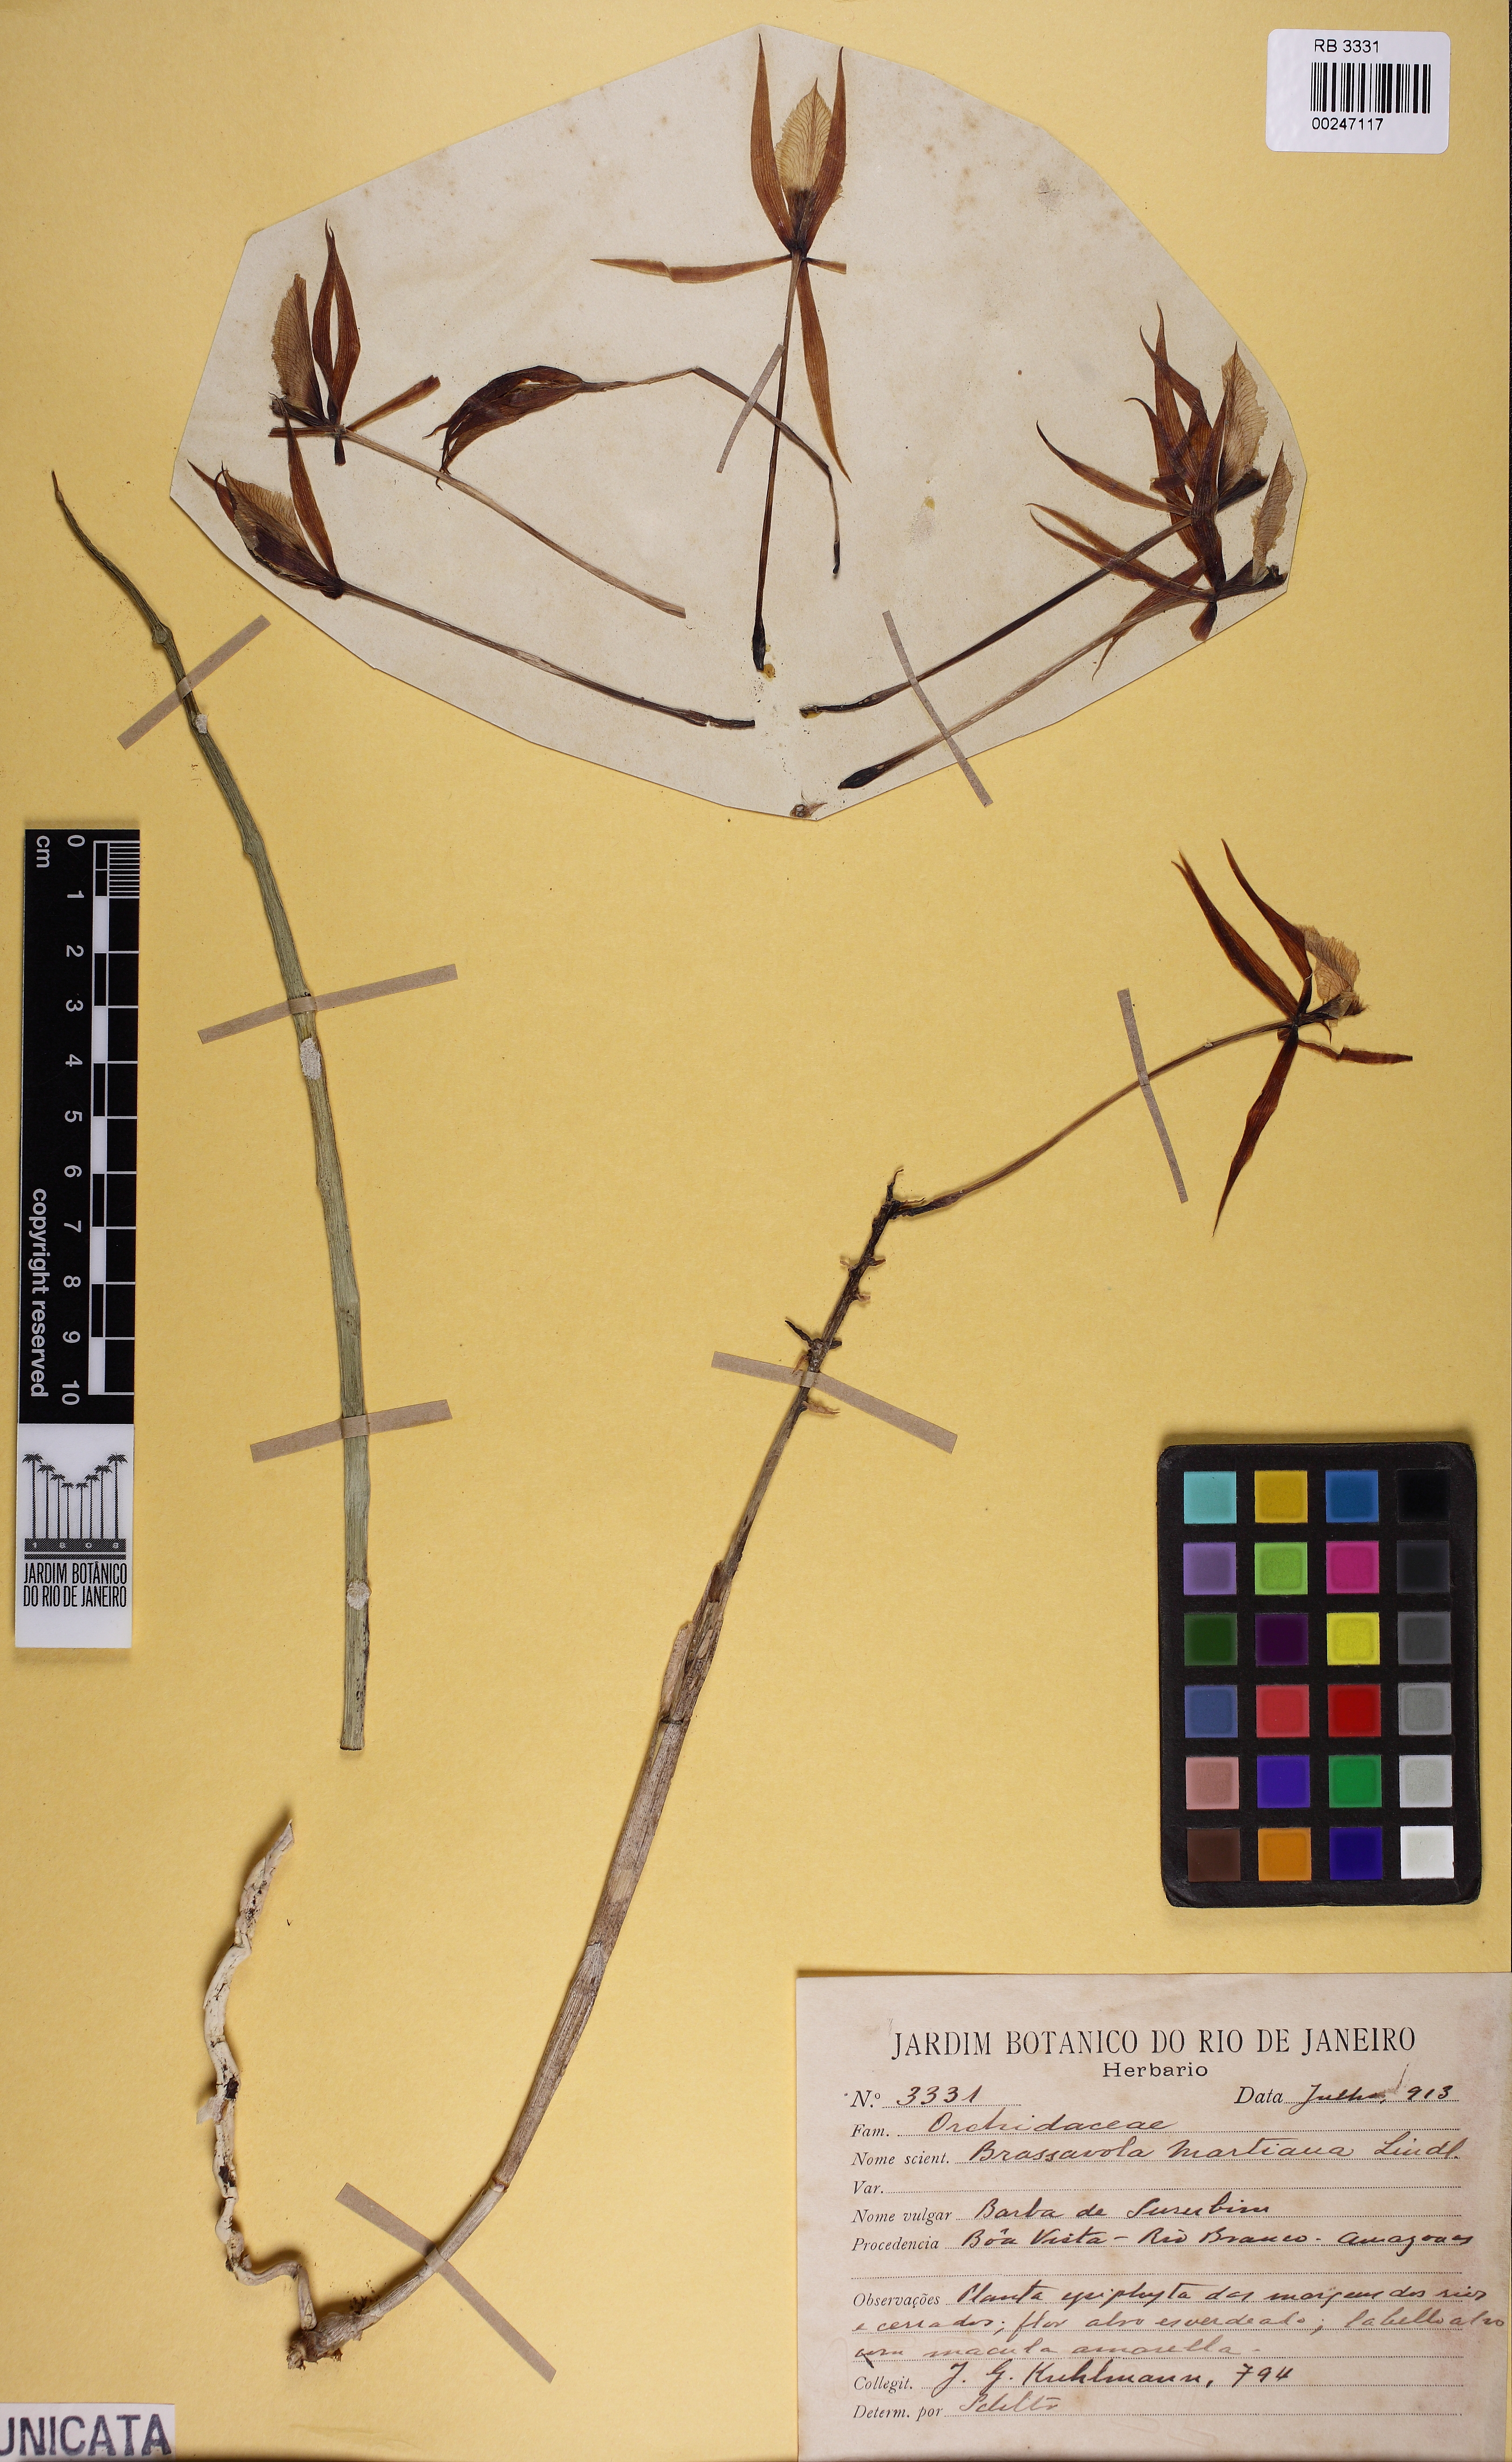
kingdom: Plantae
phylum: Tracheophyta
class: Liliopsida
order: Asparagales
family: Orchidaceae
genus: Brassavola
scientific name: Brassavola martiana
